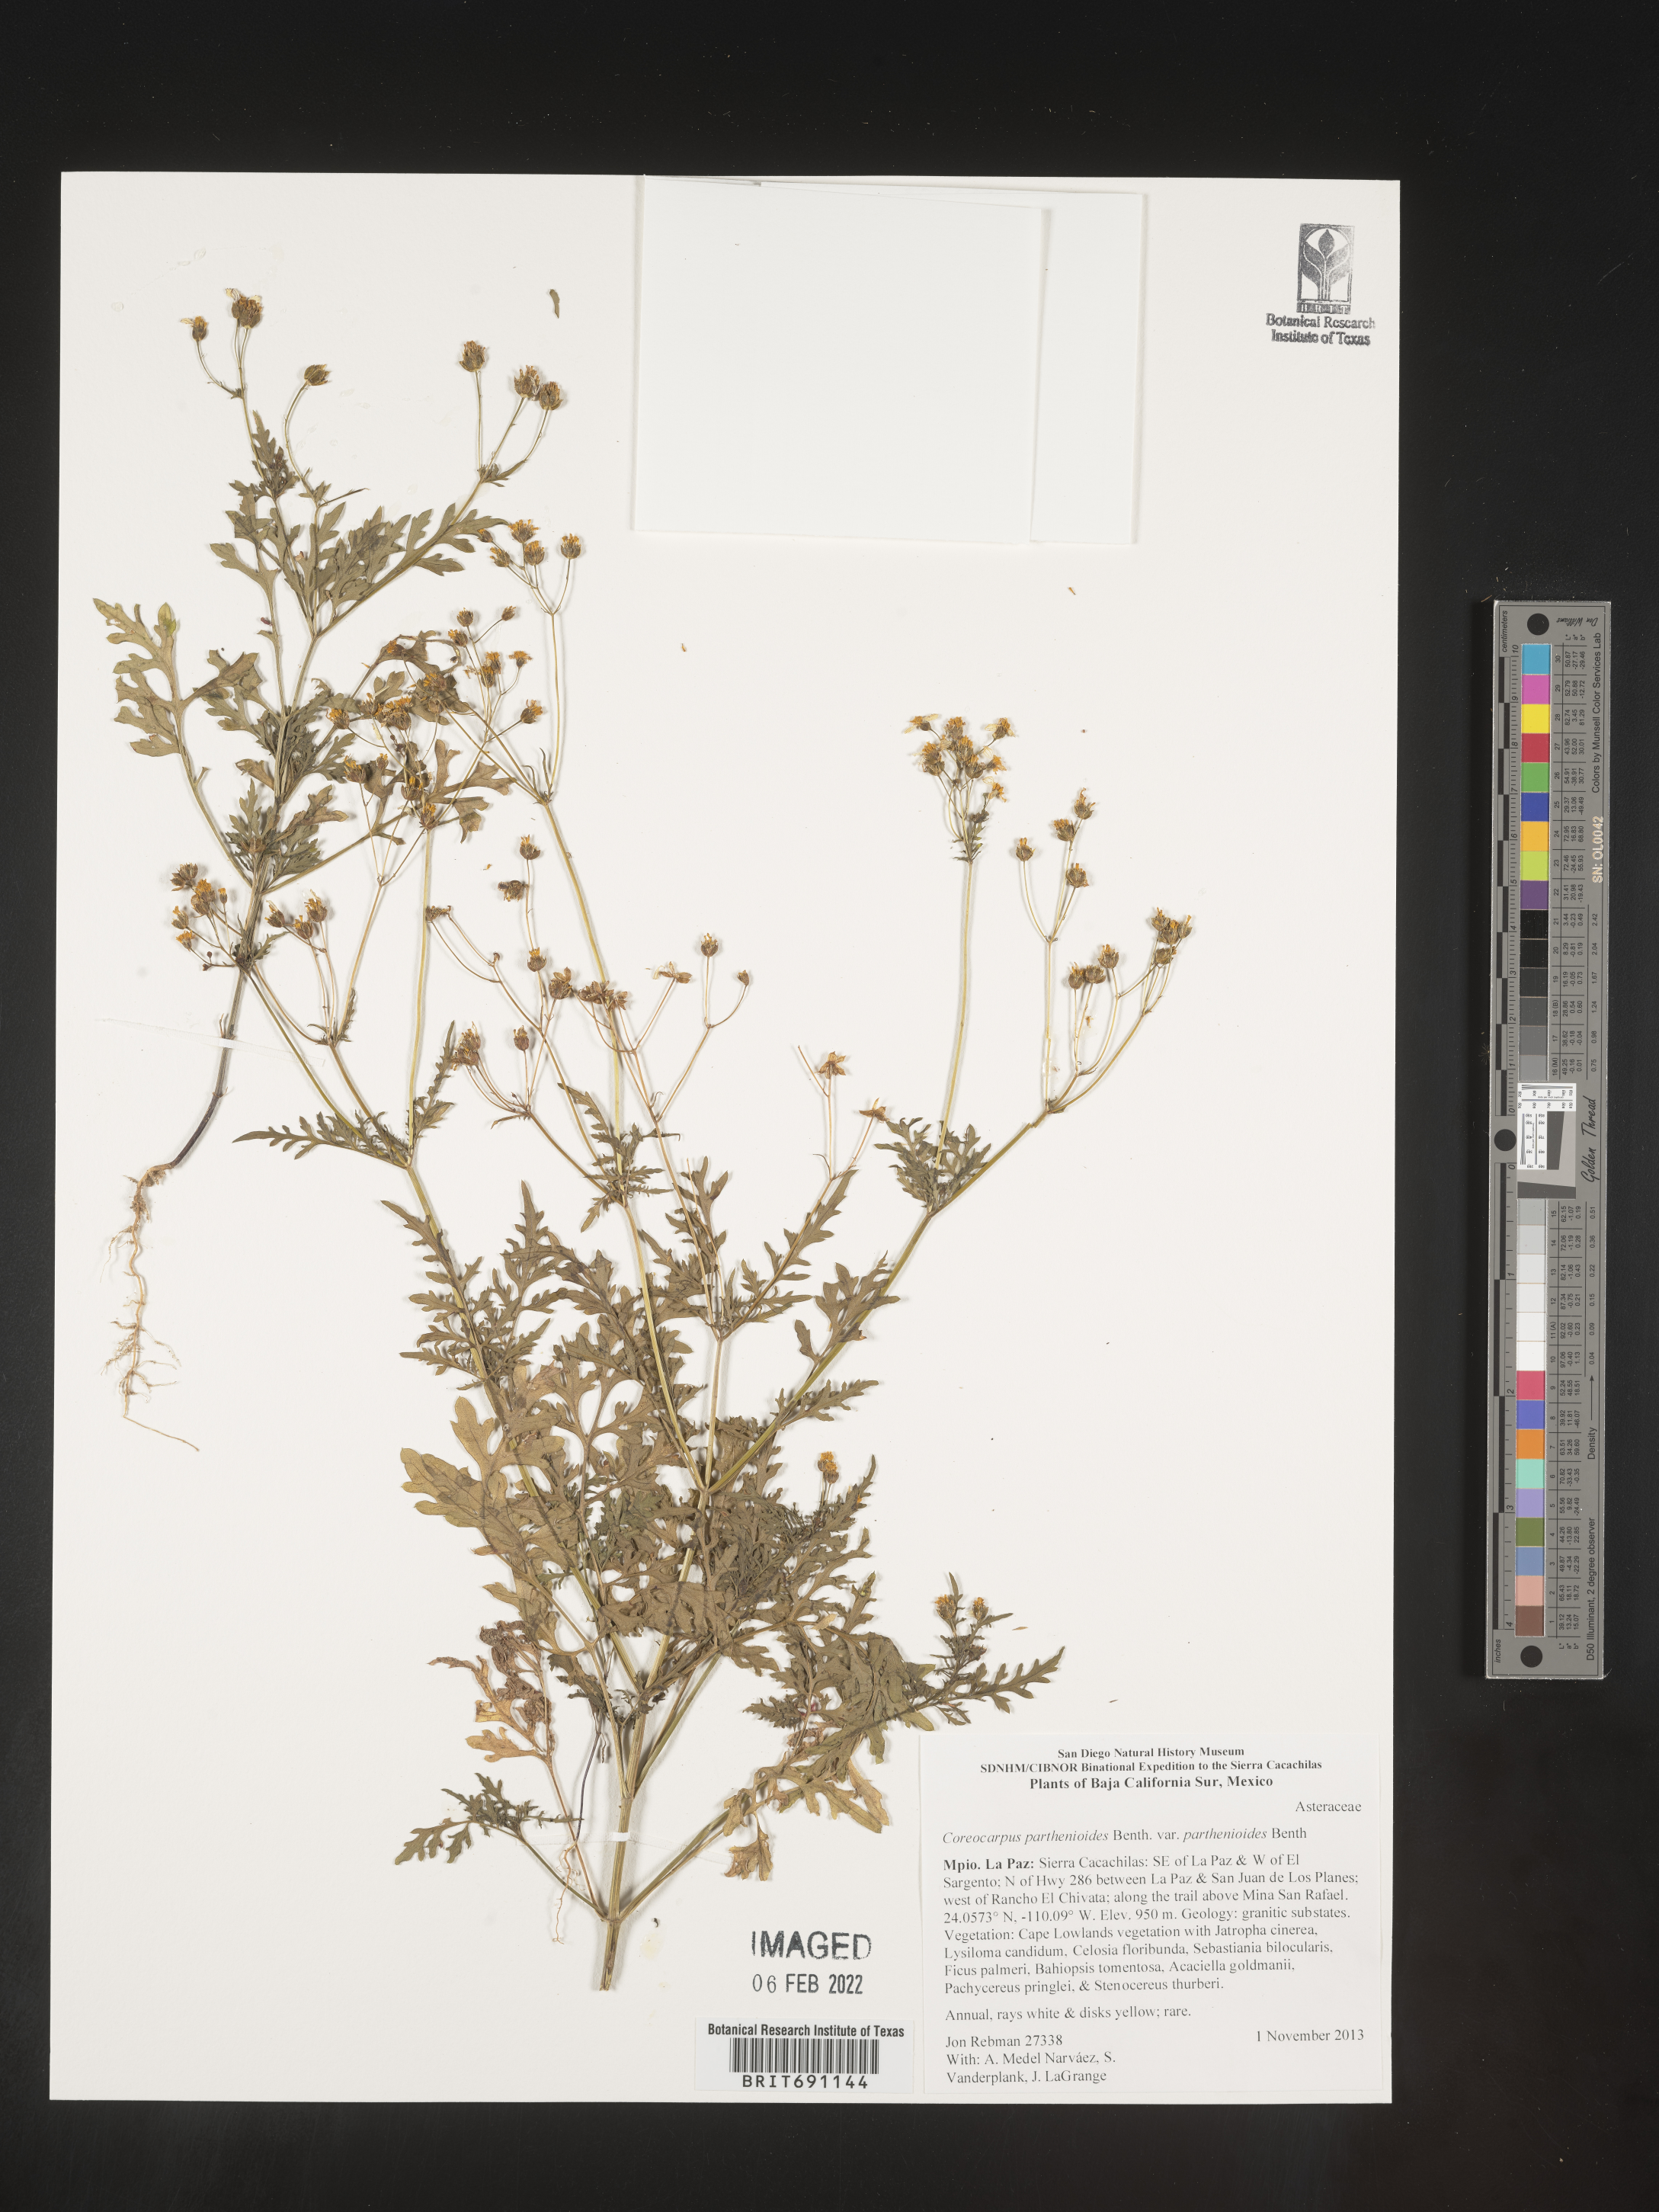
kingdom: Plantae
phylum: Tracheophyta
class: Magnoliopsida
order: Asterales
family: Asteraceae
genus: Coreocarpus
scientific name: Coreocarpus
